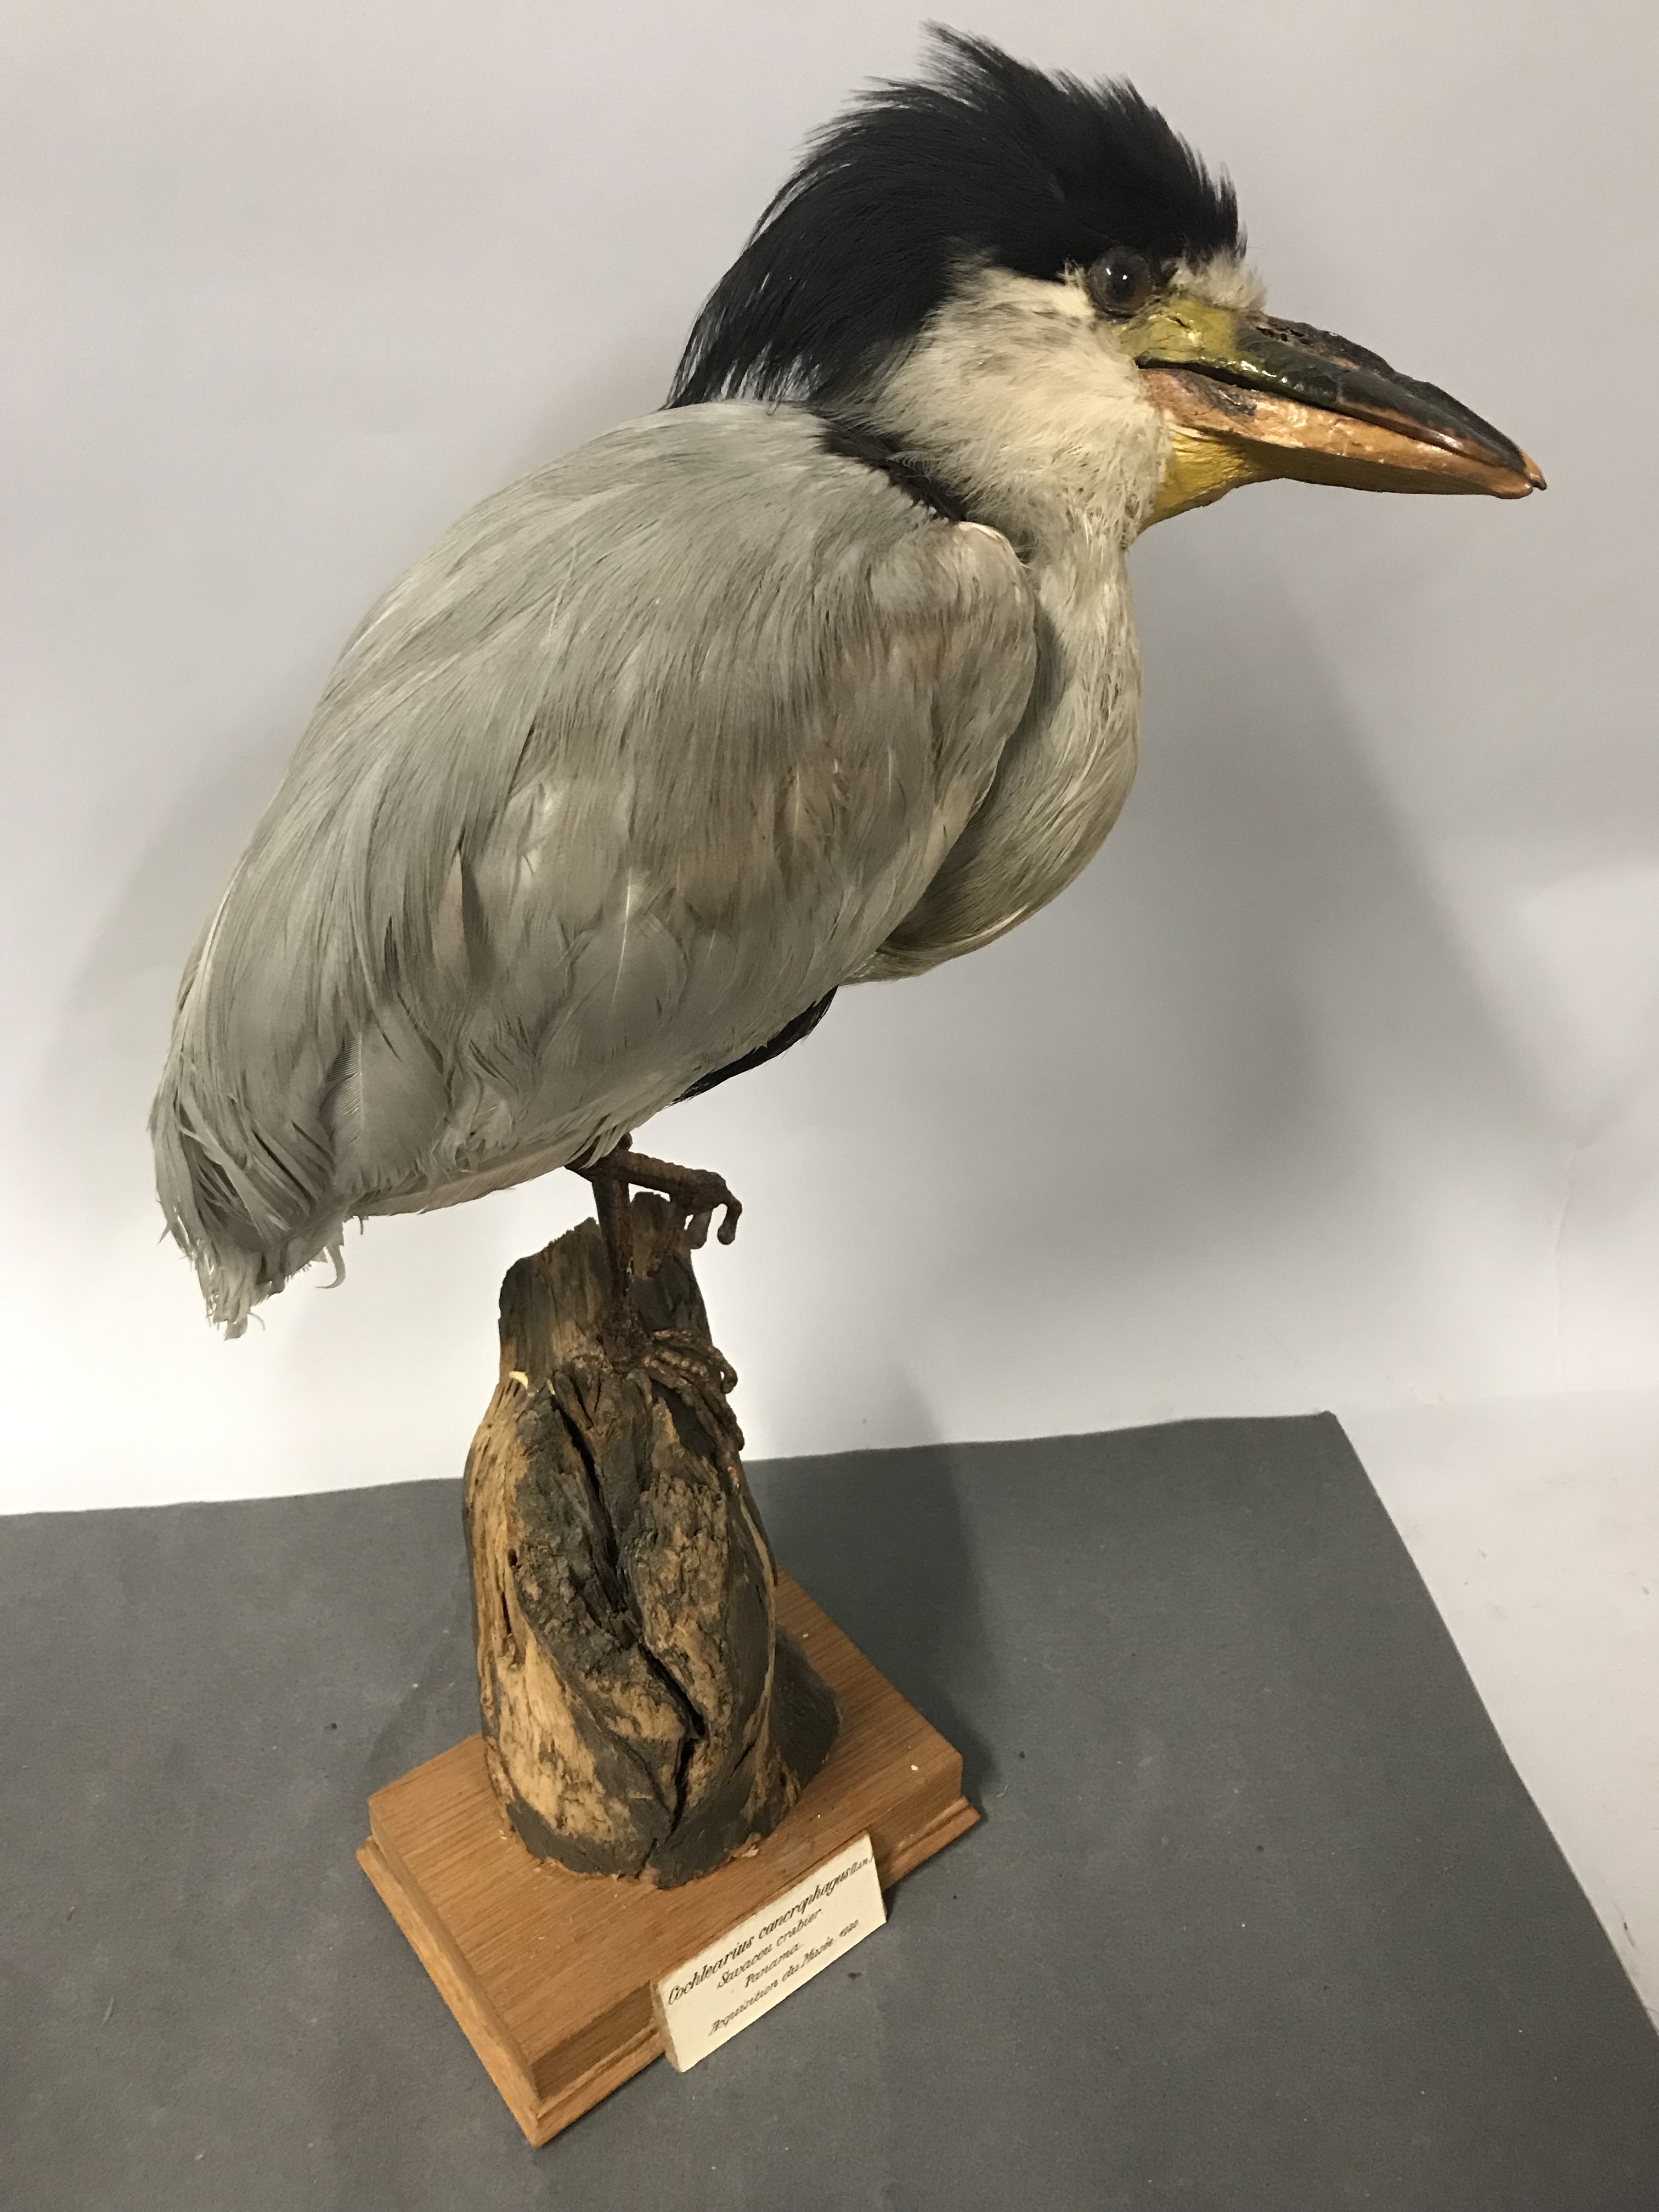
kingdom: Animalia
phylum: Chordata
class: Aves
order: Pelecaniformes
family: Ardeidae
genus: Cochlearius
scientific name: Cochlearius cochlearius
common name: Boat-billed heron
